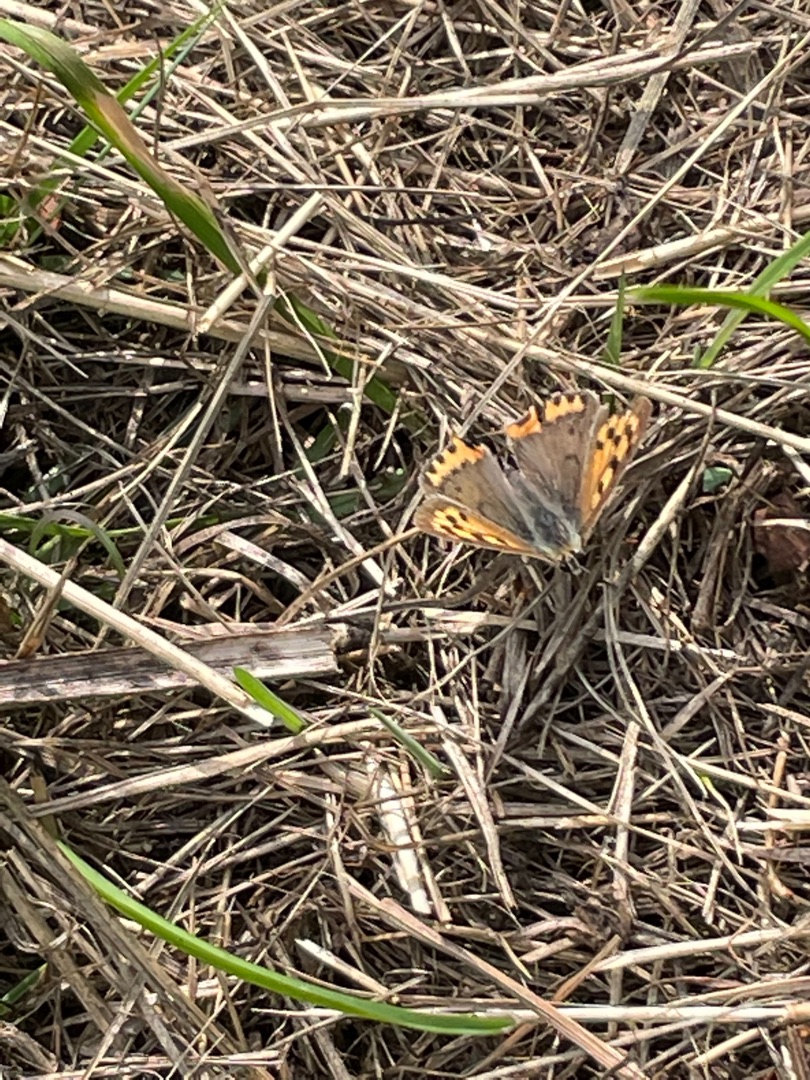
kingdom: Animalia
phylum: Arthropoda
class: Insecta
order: Lepidoptera
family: Lycaenidae
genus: Lycaena
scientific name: Lycaena phlaeas
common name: Lille ildfugl
